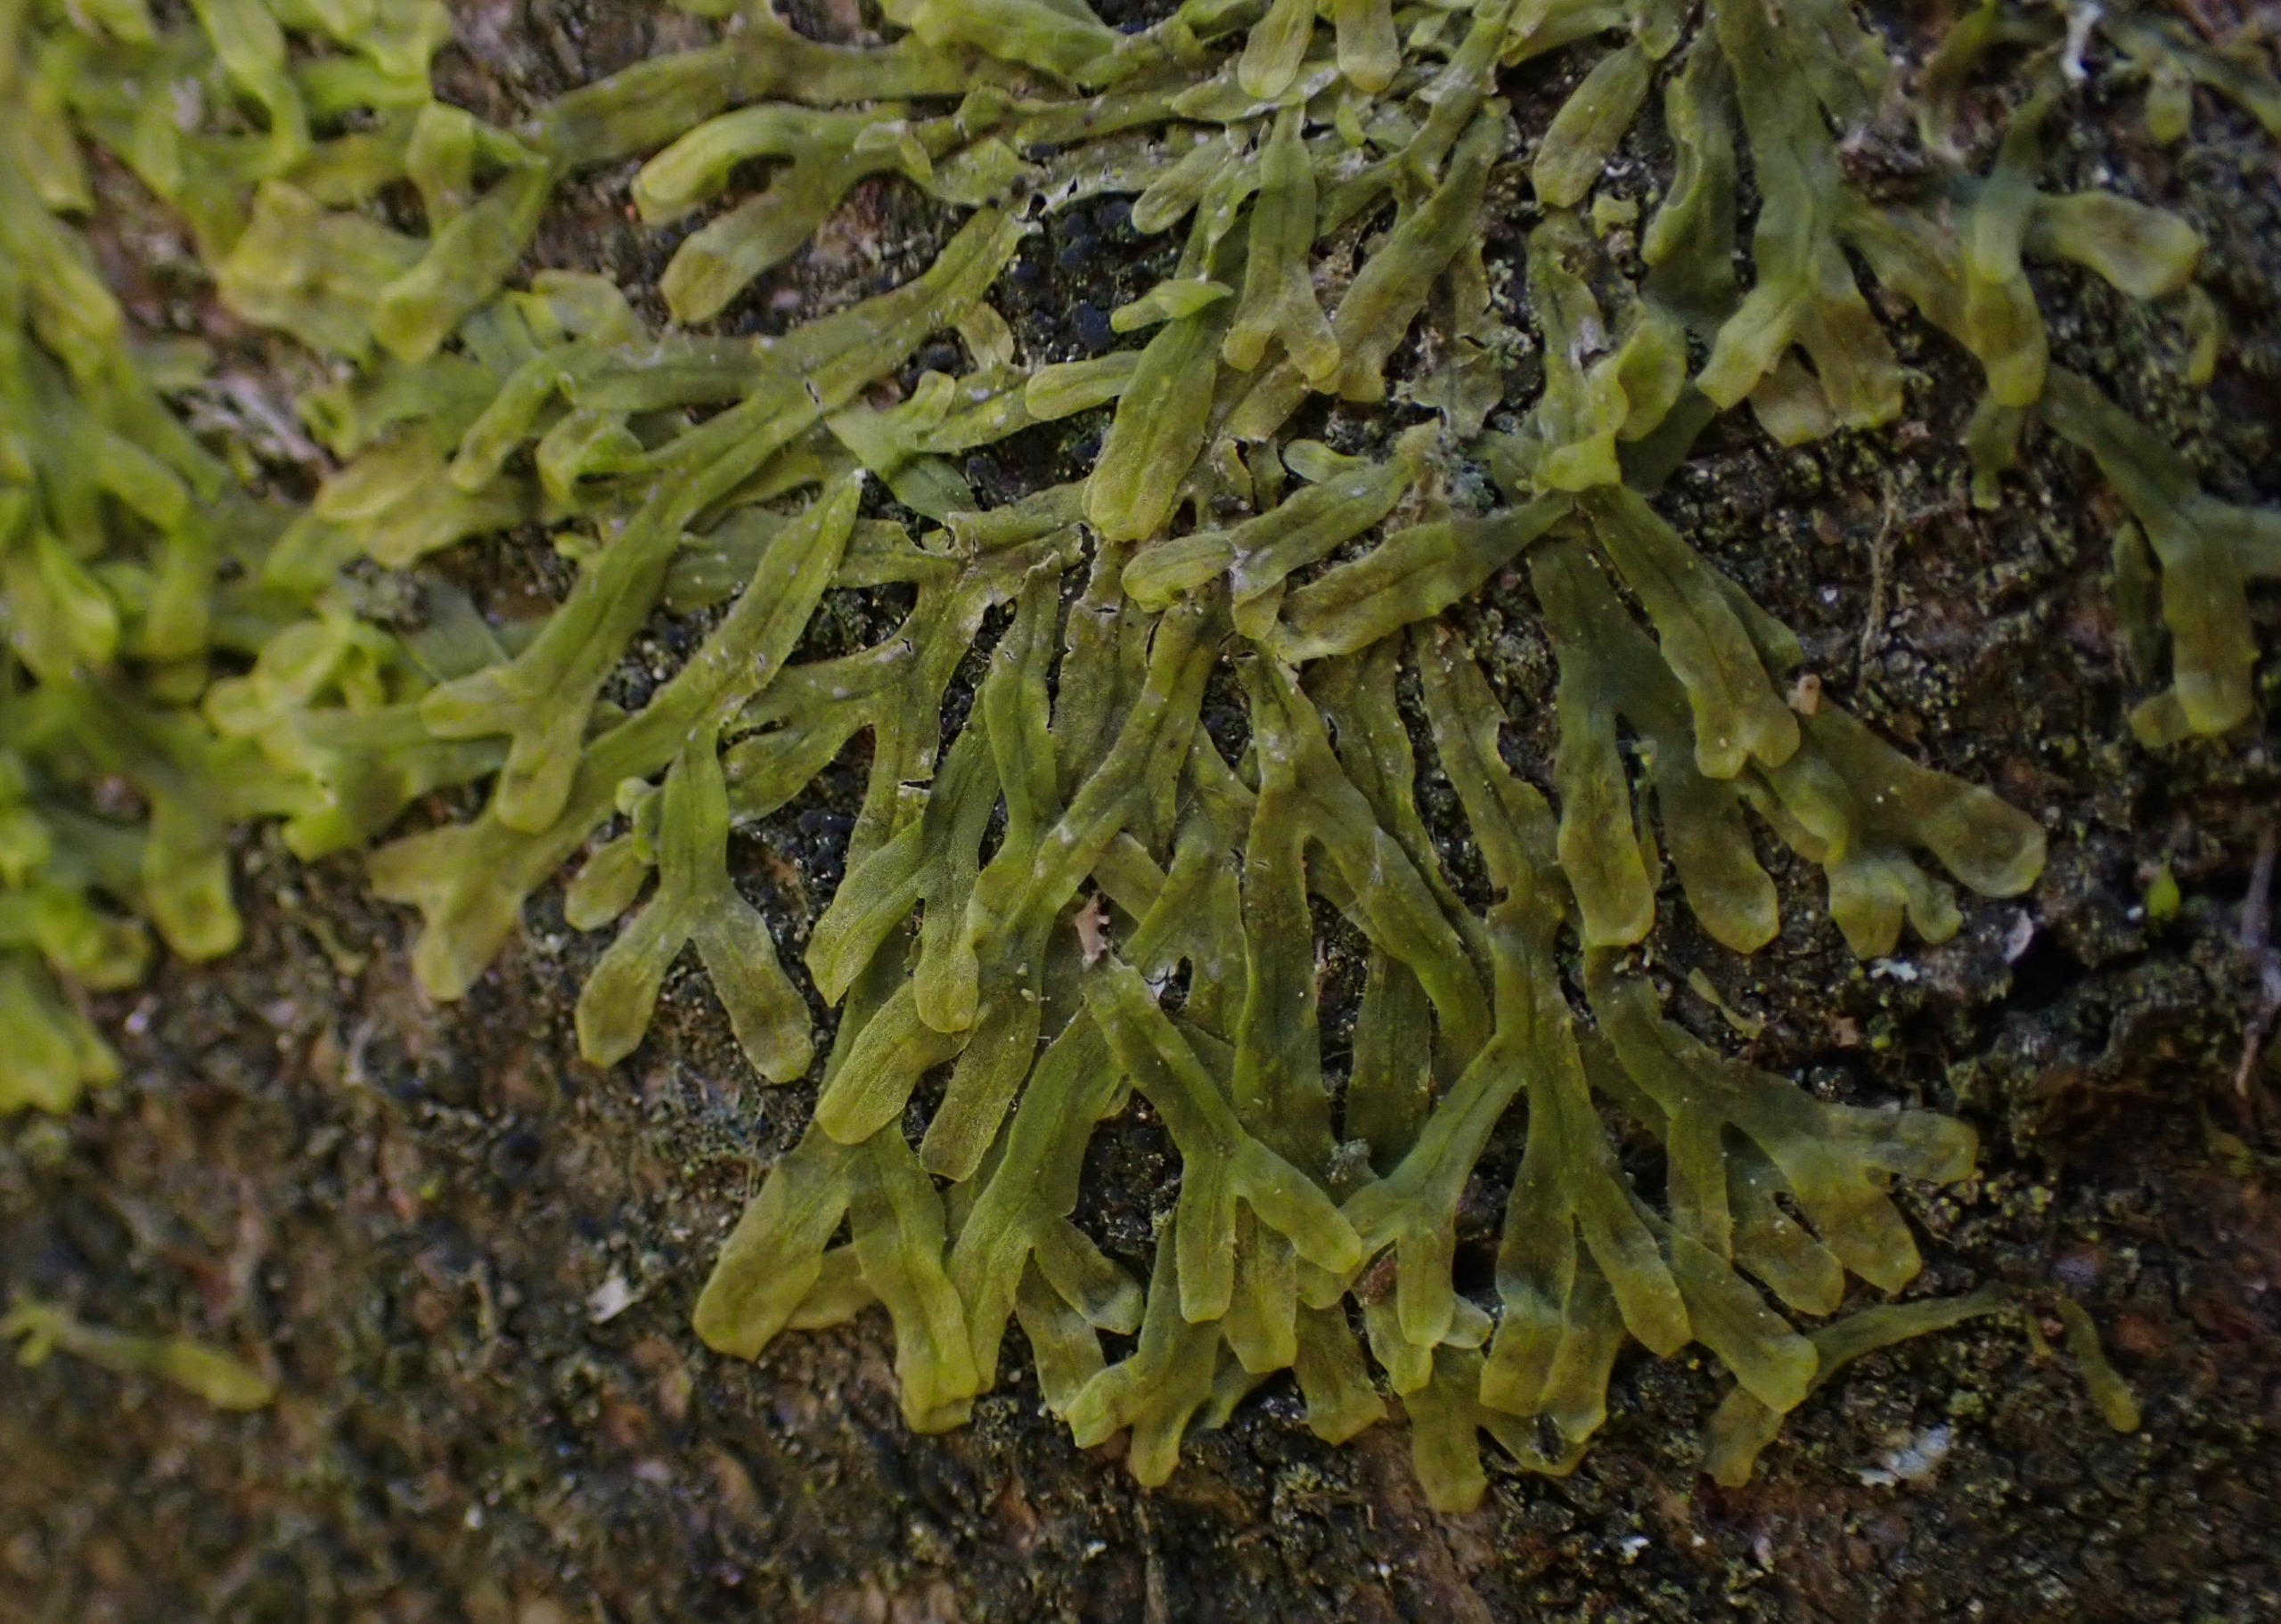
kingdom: Plantae
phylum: Marchantiophyta
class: Jungermanniopsida
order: Metzgeriales
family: Metzgeriaceae
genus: Metzgeria
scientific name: Metzgeria furcata
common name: Almindelig gaffelløv
